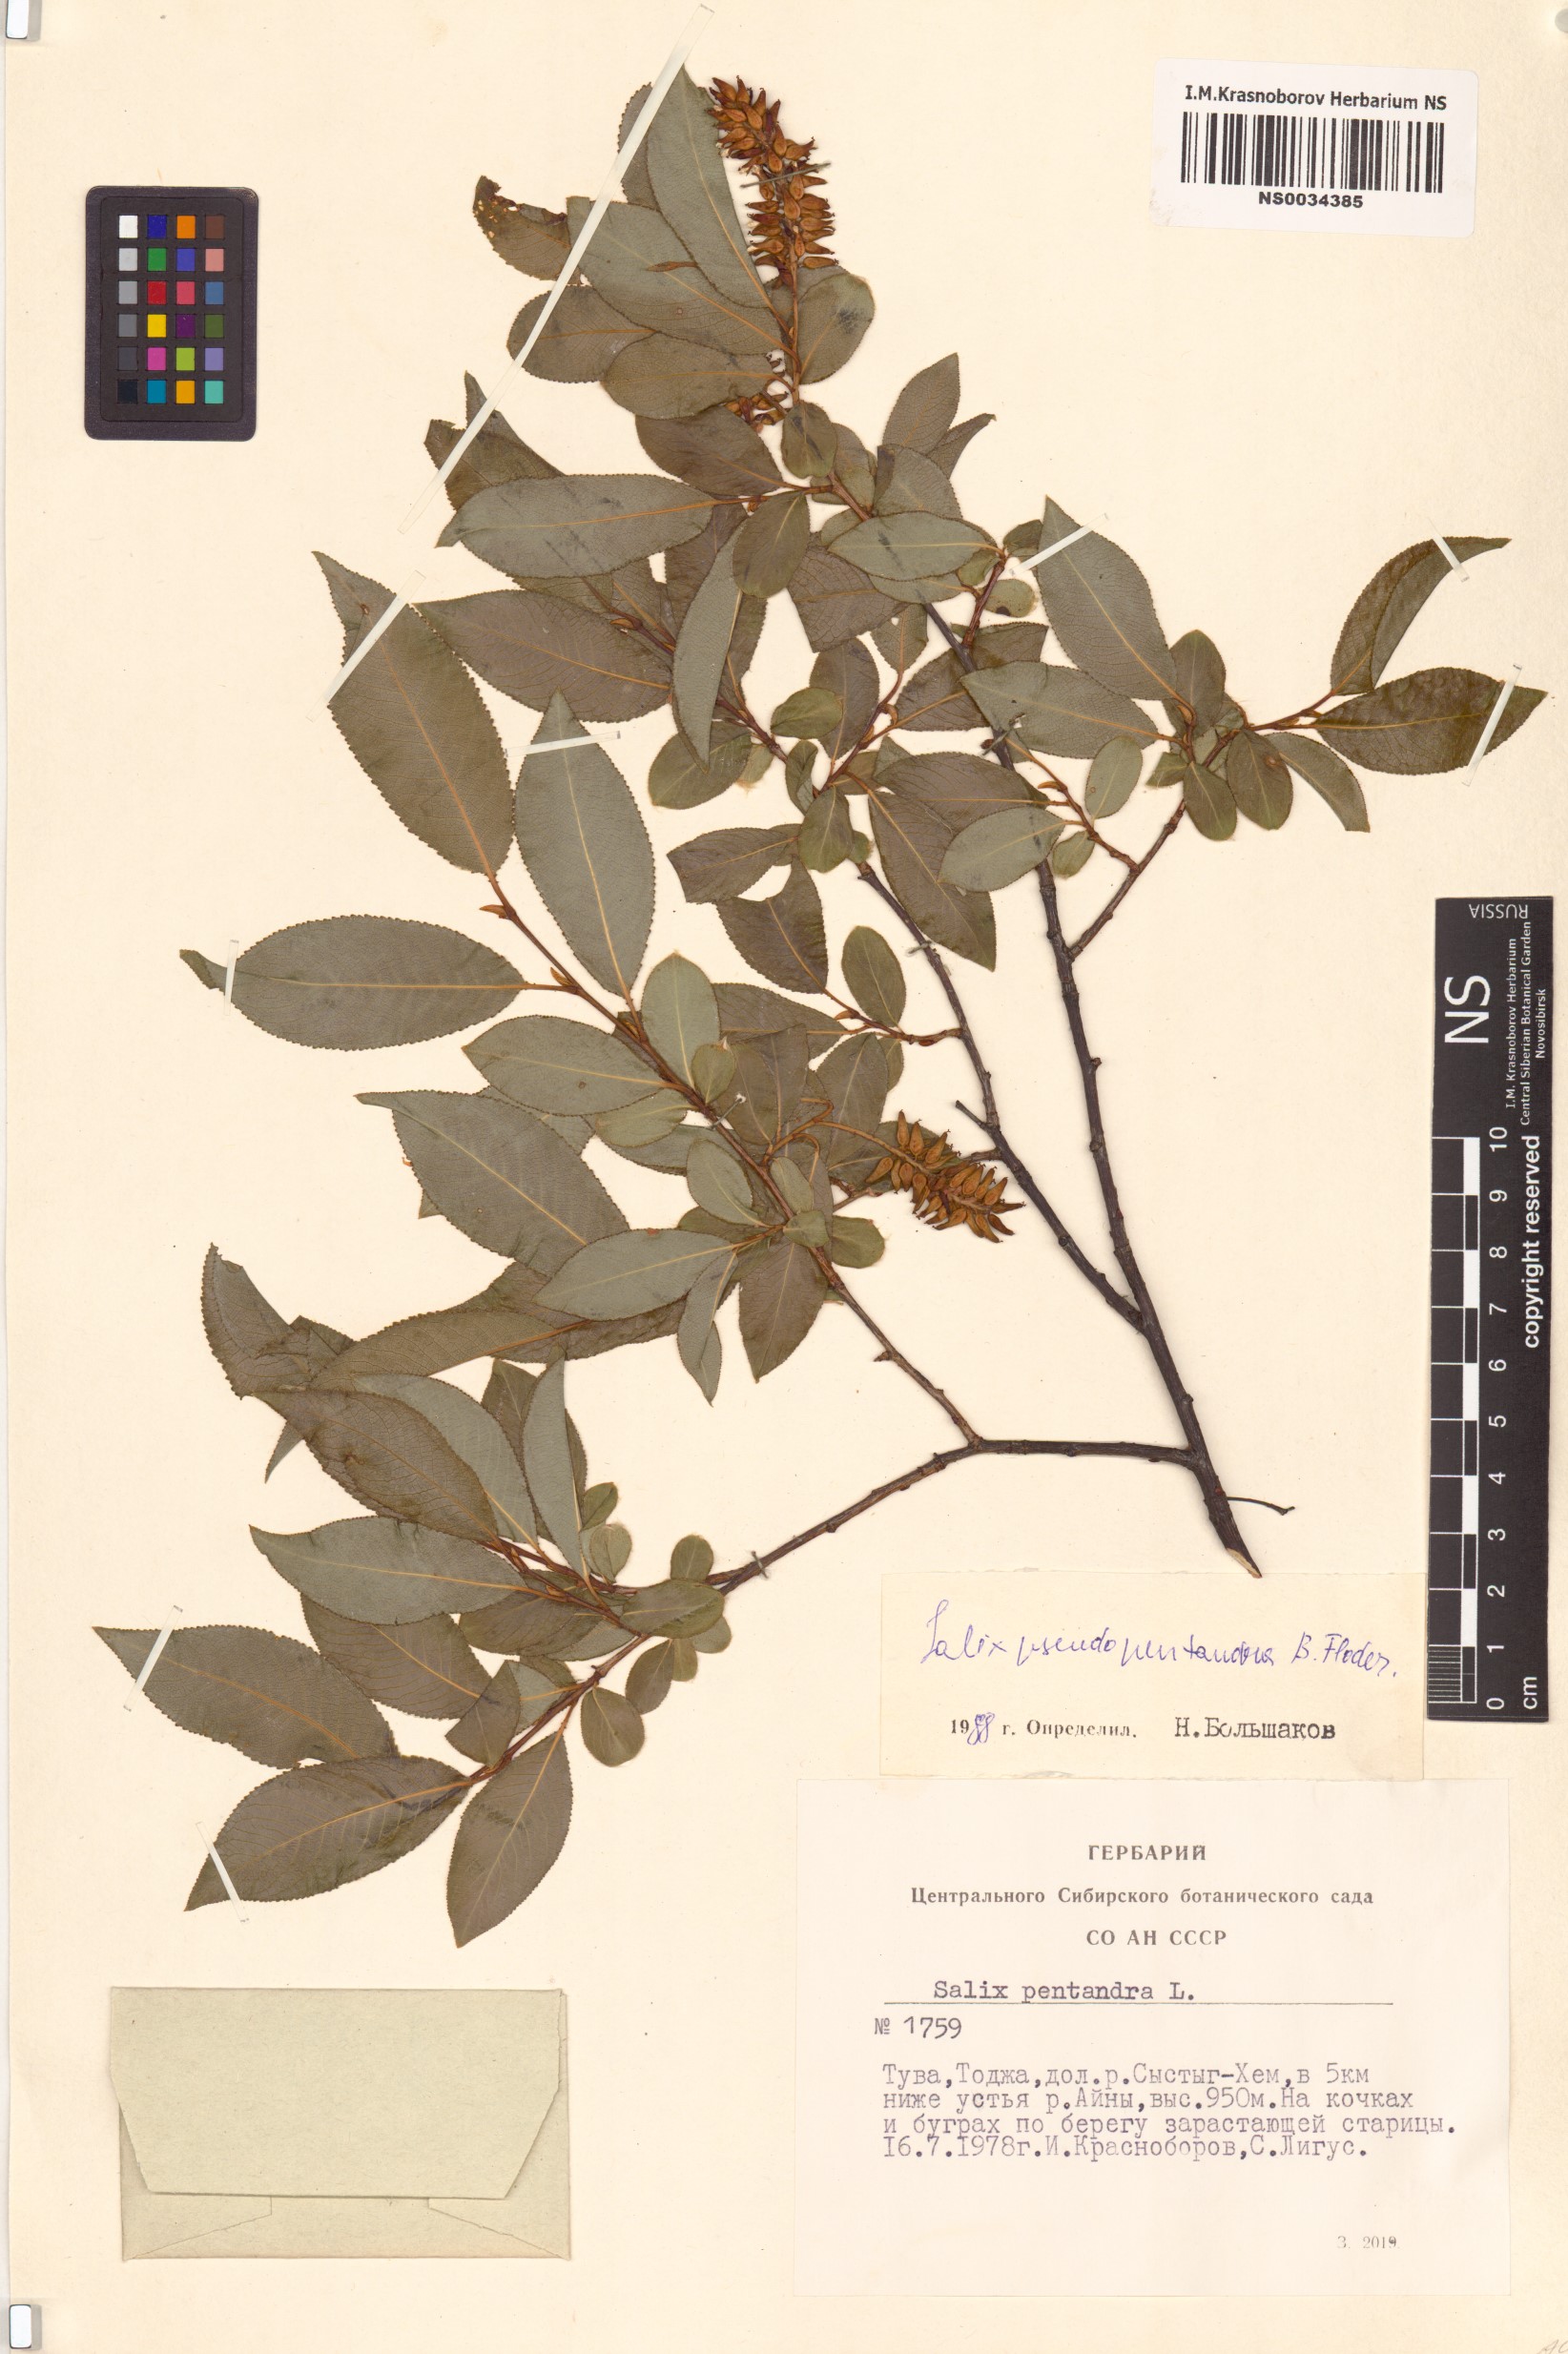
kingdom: Plantae
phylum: Tracheophyta
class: Magnoliopsida
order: Malpighiales
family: Salicaceae
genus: Salix
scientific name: Salix pseudopentandra
